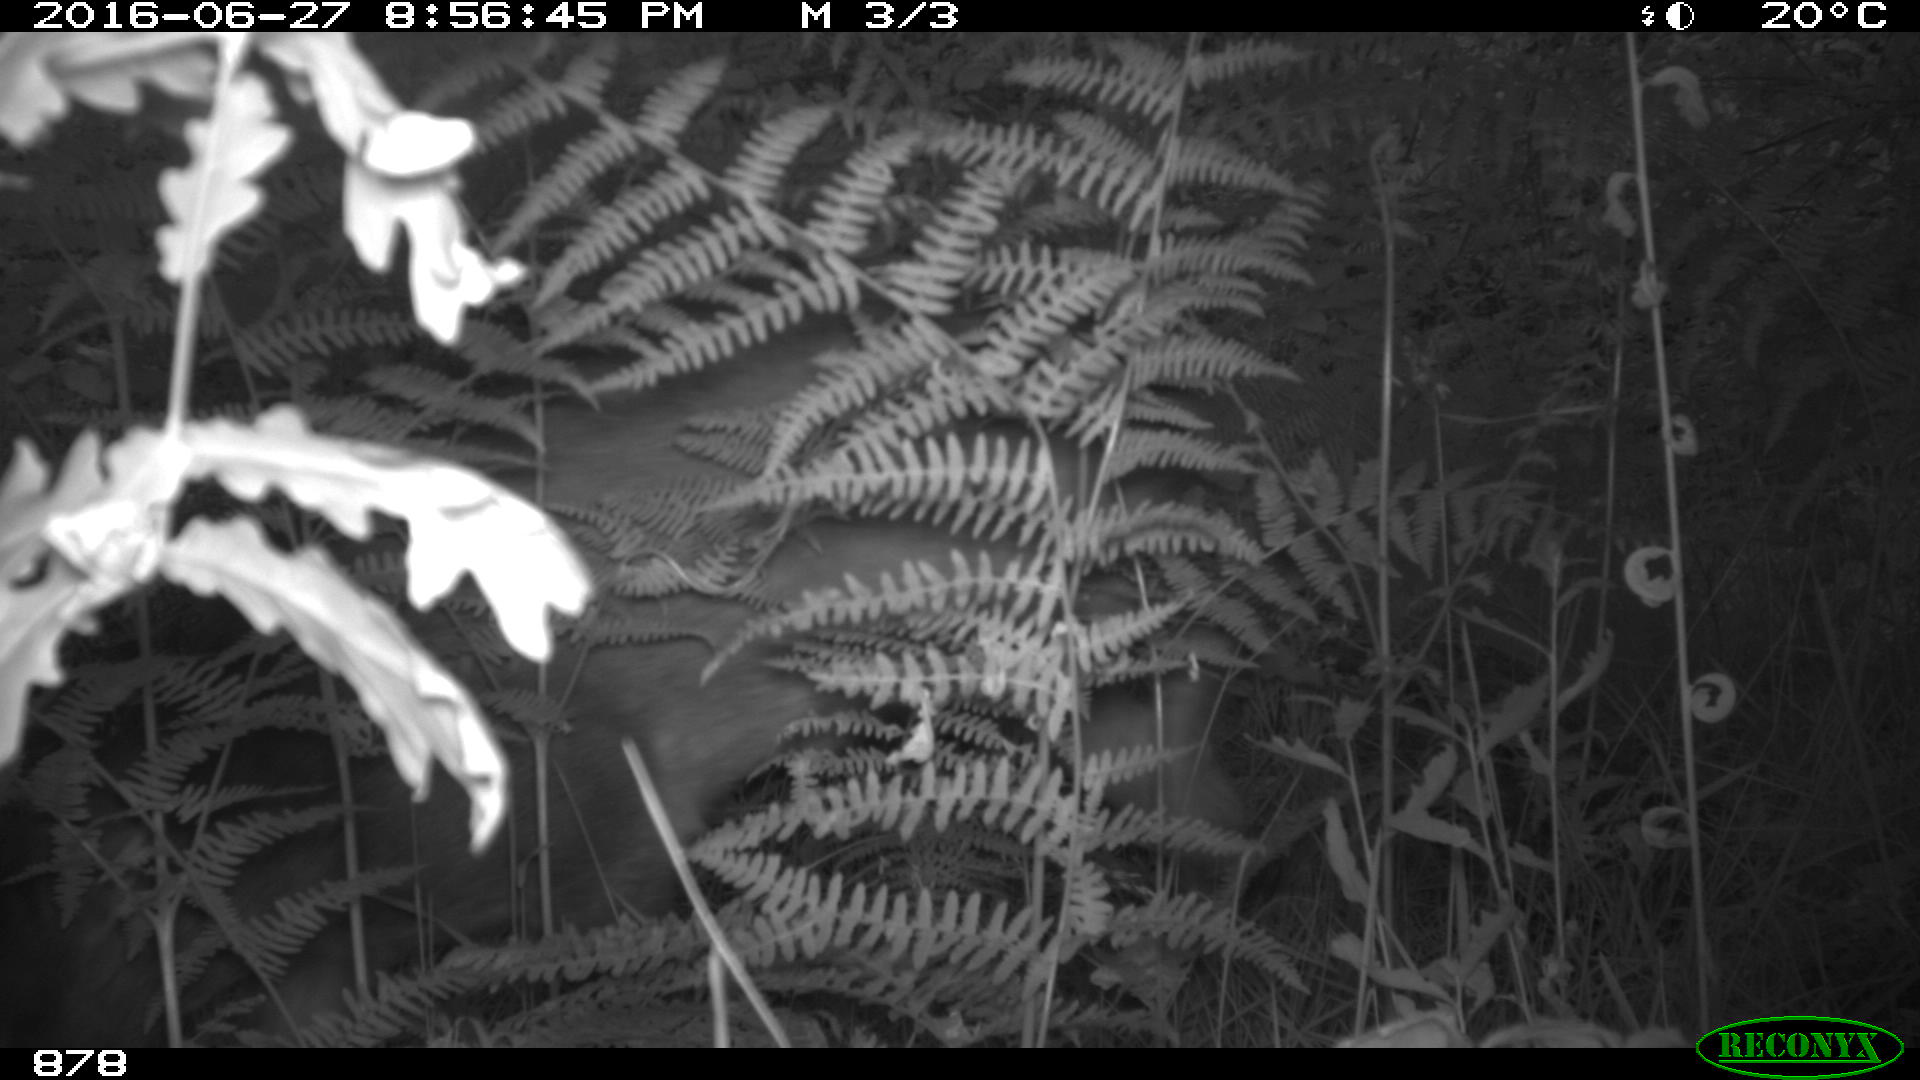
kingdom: Animalia
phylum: Chordata
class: Mammalia
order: Artiodactyla
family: Cervidae
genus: Capreolus
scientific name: Capreolus capreolus
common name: Western roe deer
